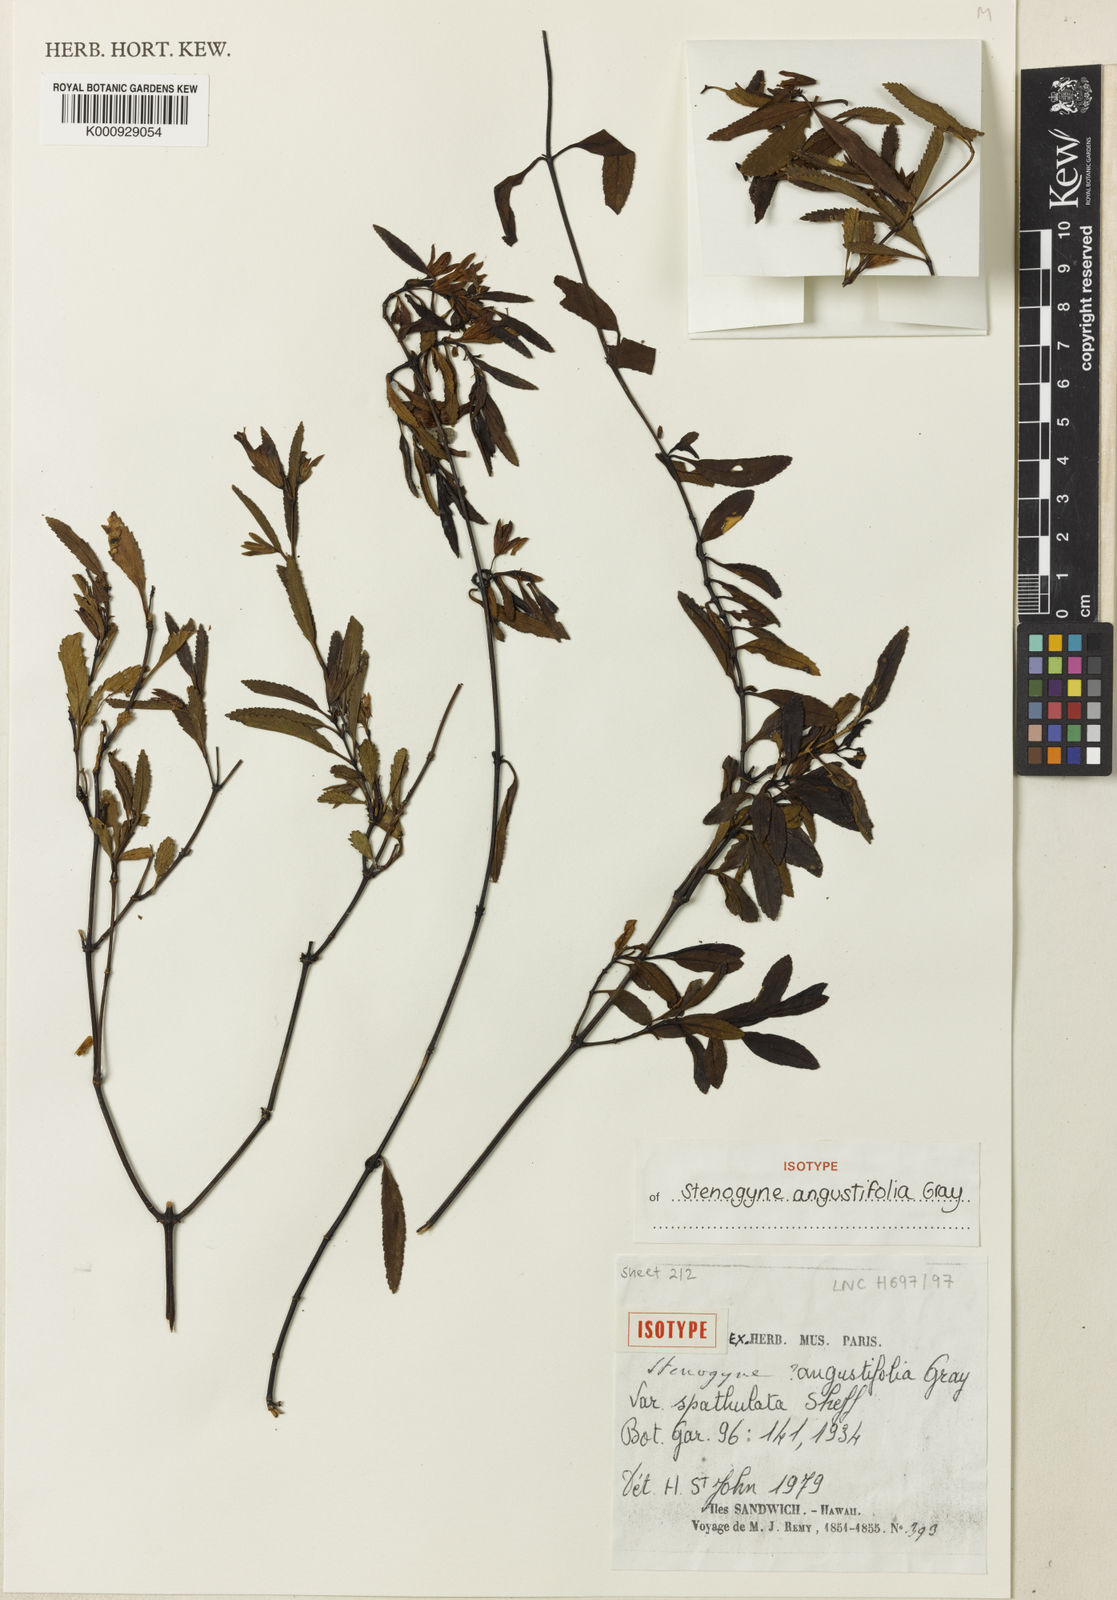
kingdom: Plantae
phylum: Tracheophyta
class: Magnoliopsida
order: Lamiales
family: Lamiaceae
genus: Stenogyne
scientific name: Stenogyne angustifolia
